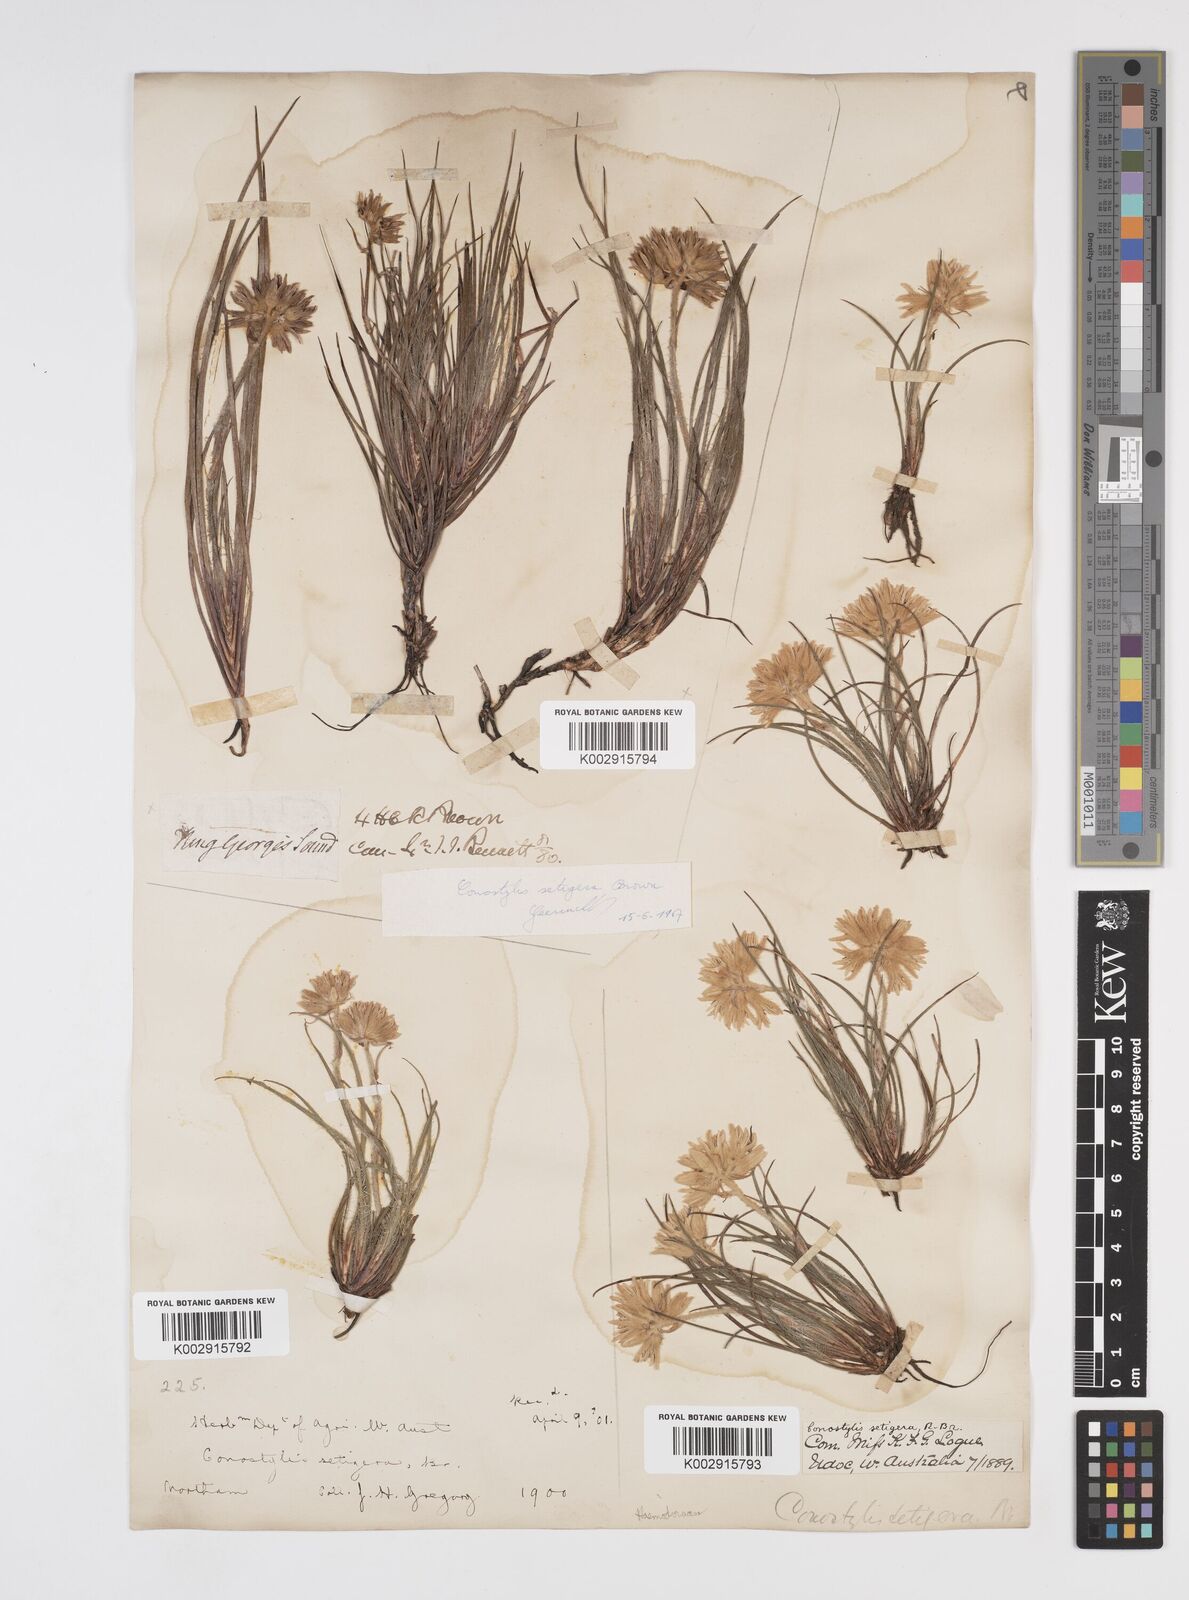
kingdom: Plantae
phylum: Tracheophyta
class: Liliopsida
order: Commelinales
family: Haemodoraceae
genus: Conostylis
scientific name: Conostylis setigera
